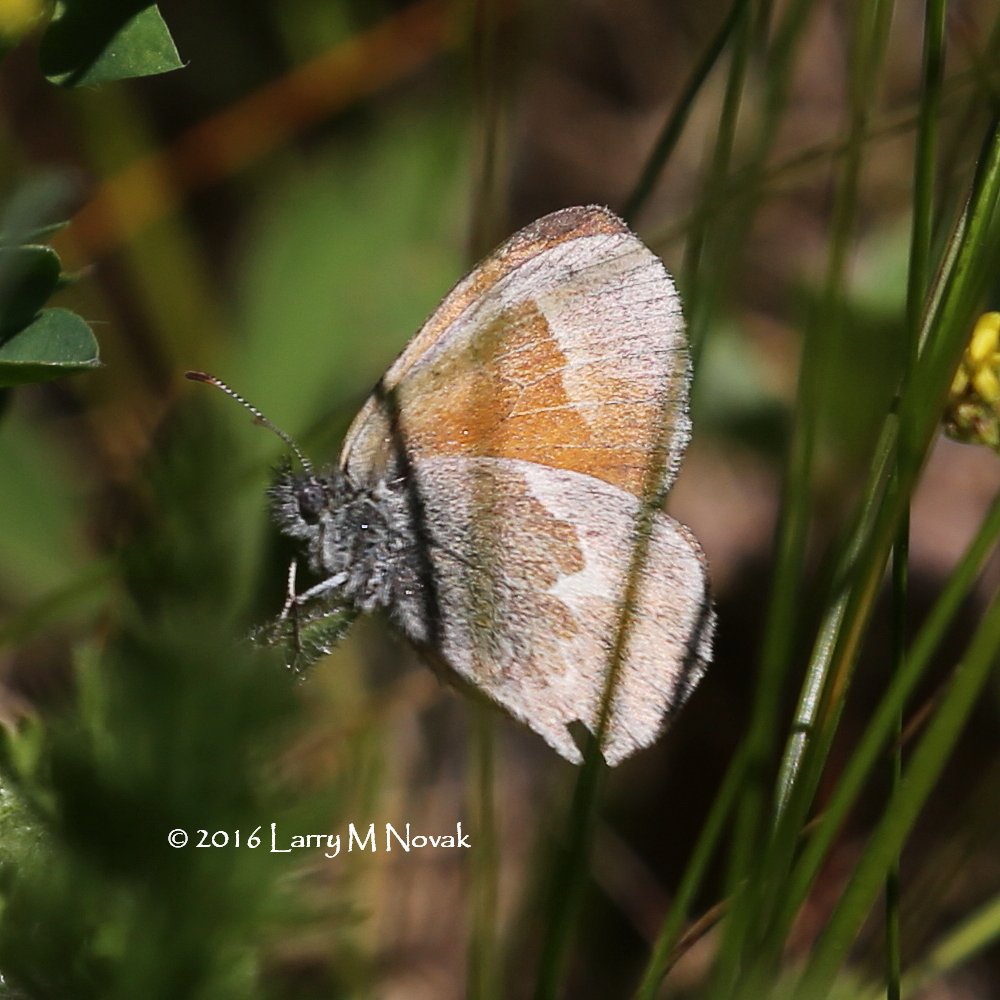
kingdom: Animalia
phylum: Arthropoda
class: Insecta
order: Lepidoptera
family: Nymphalidae
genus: Coenonympha
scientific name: Coenonympha tullia
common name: Large Heath
